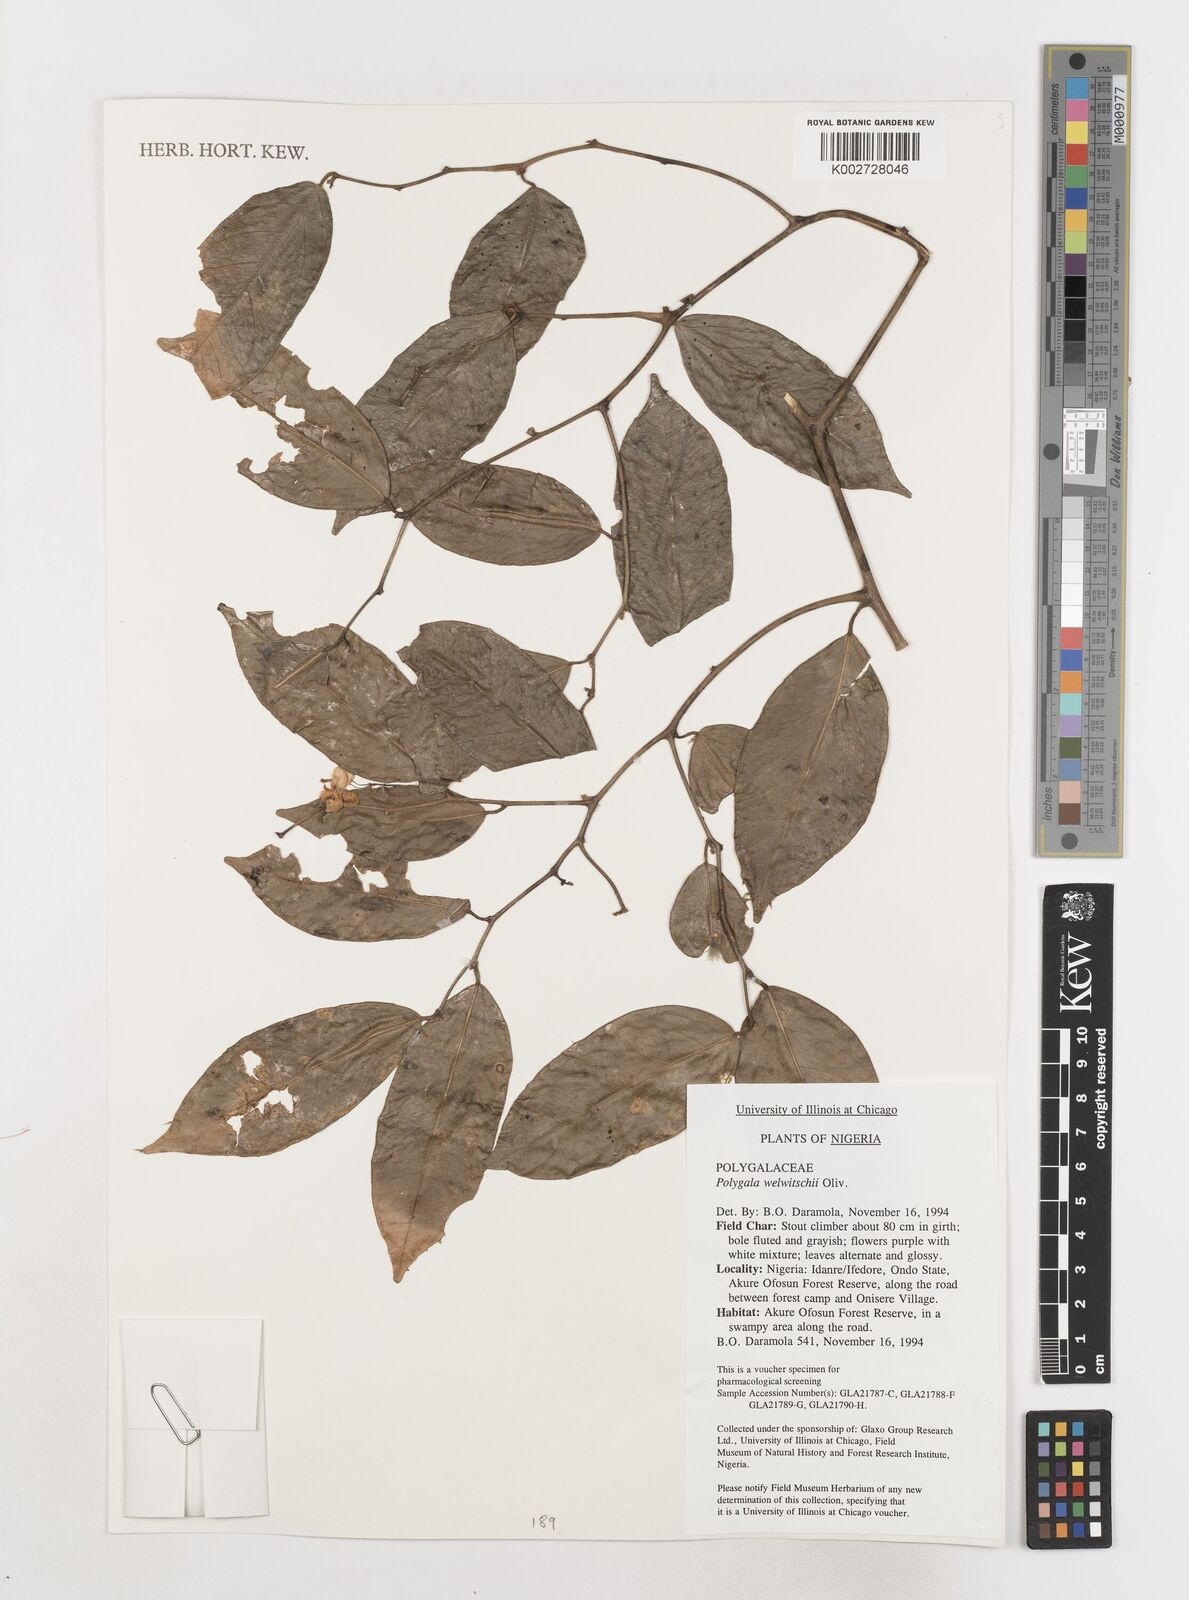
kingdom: Plantae
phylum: Tracheophyta
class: Magnoliopsida
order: Fabales
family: Polygalaceae
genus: Carpolobia
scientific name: Carpolobia
